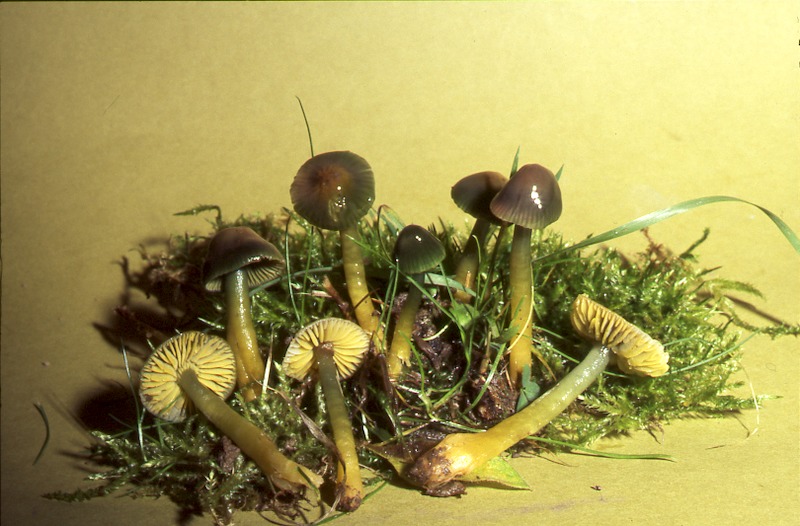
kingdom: Fungi
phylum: Basidiomycota
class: Agaricomycetes
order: Agaricales
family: Hygrophoraceae
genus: Gliophorus
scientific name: Gliophorus psittacinus
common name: Parrot wax-cap
